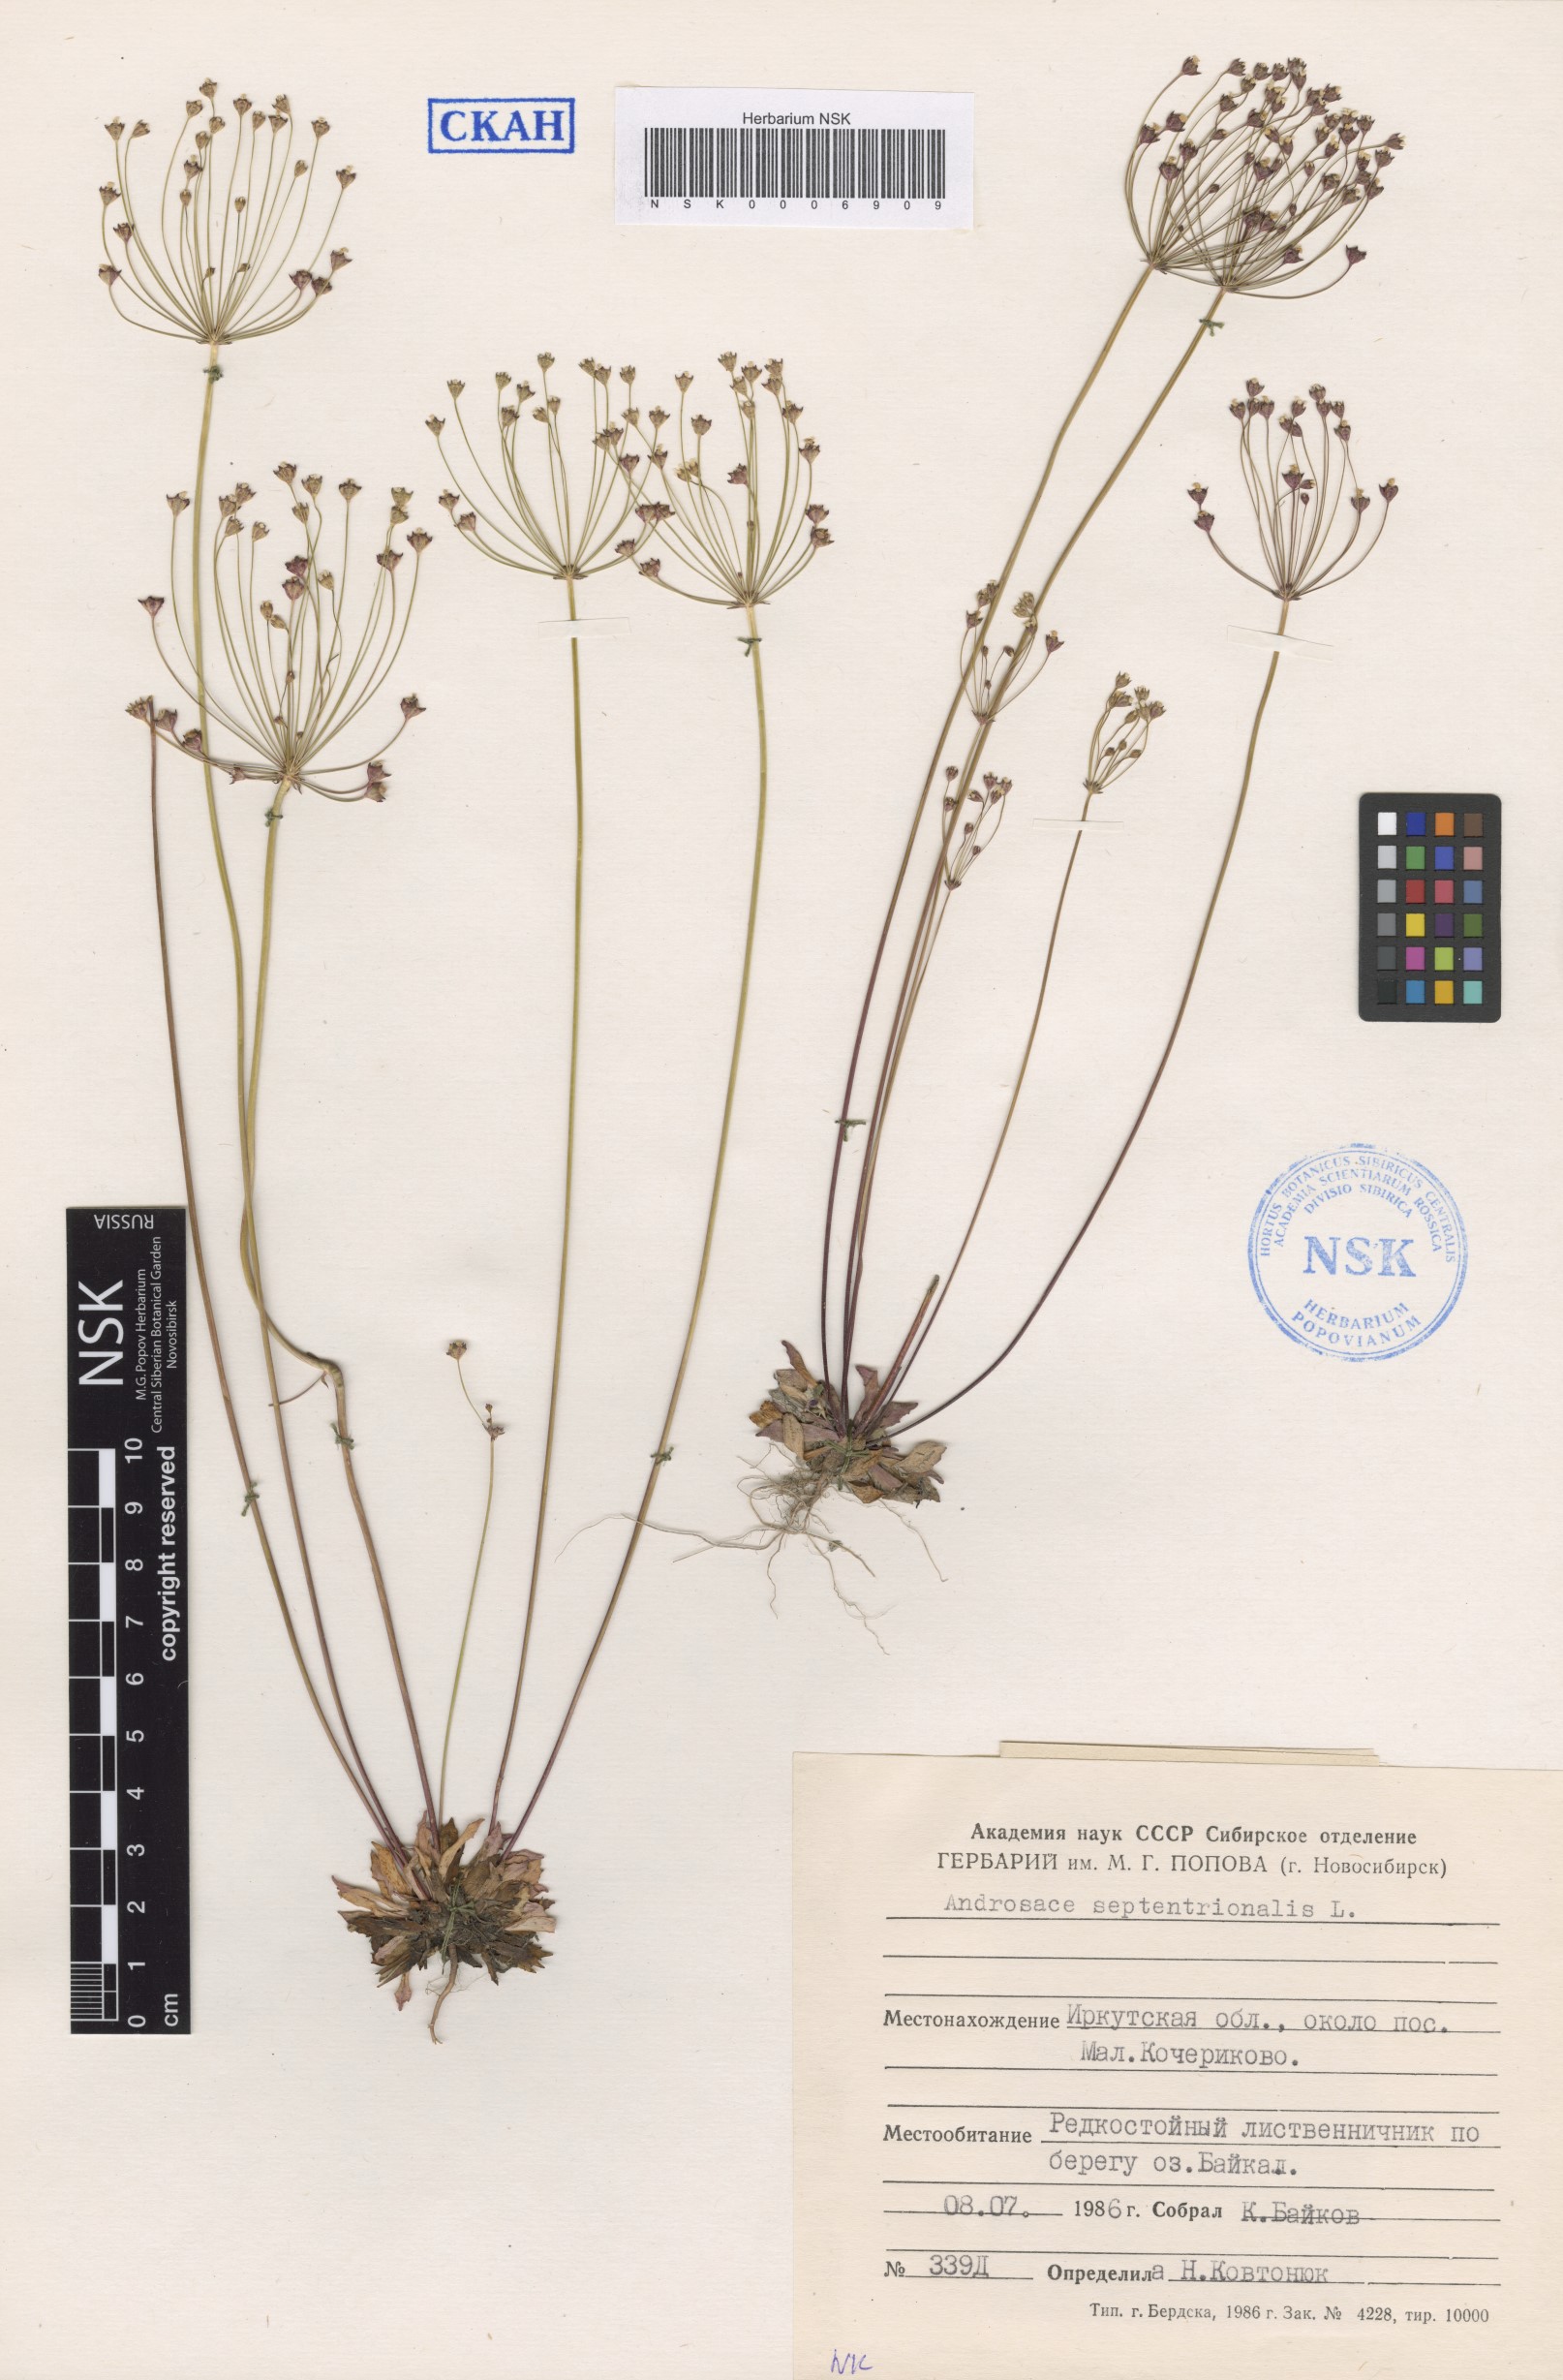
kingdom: Plantae
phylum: Tracheophyta
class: Magnoliopsida
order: Ericales
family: Primulaceae
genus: Androsace
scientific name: Androsace septentrionalis
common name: Hairy northern fairy-candelabra
